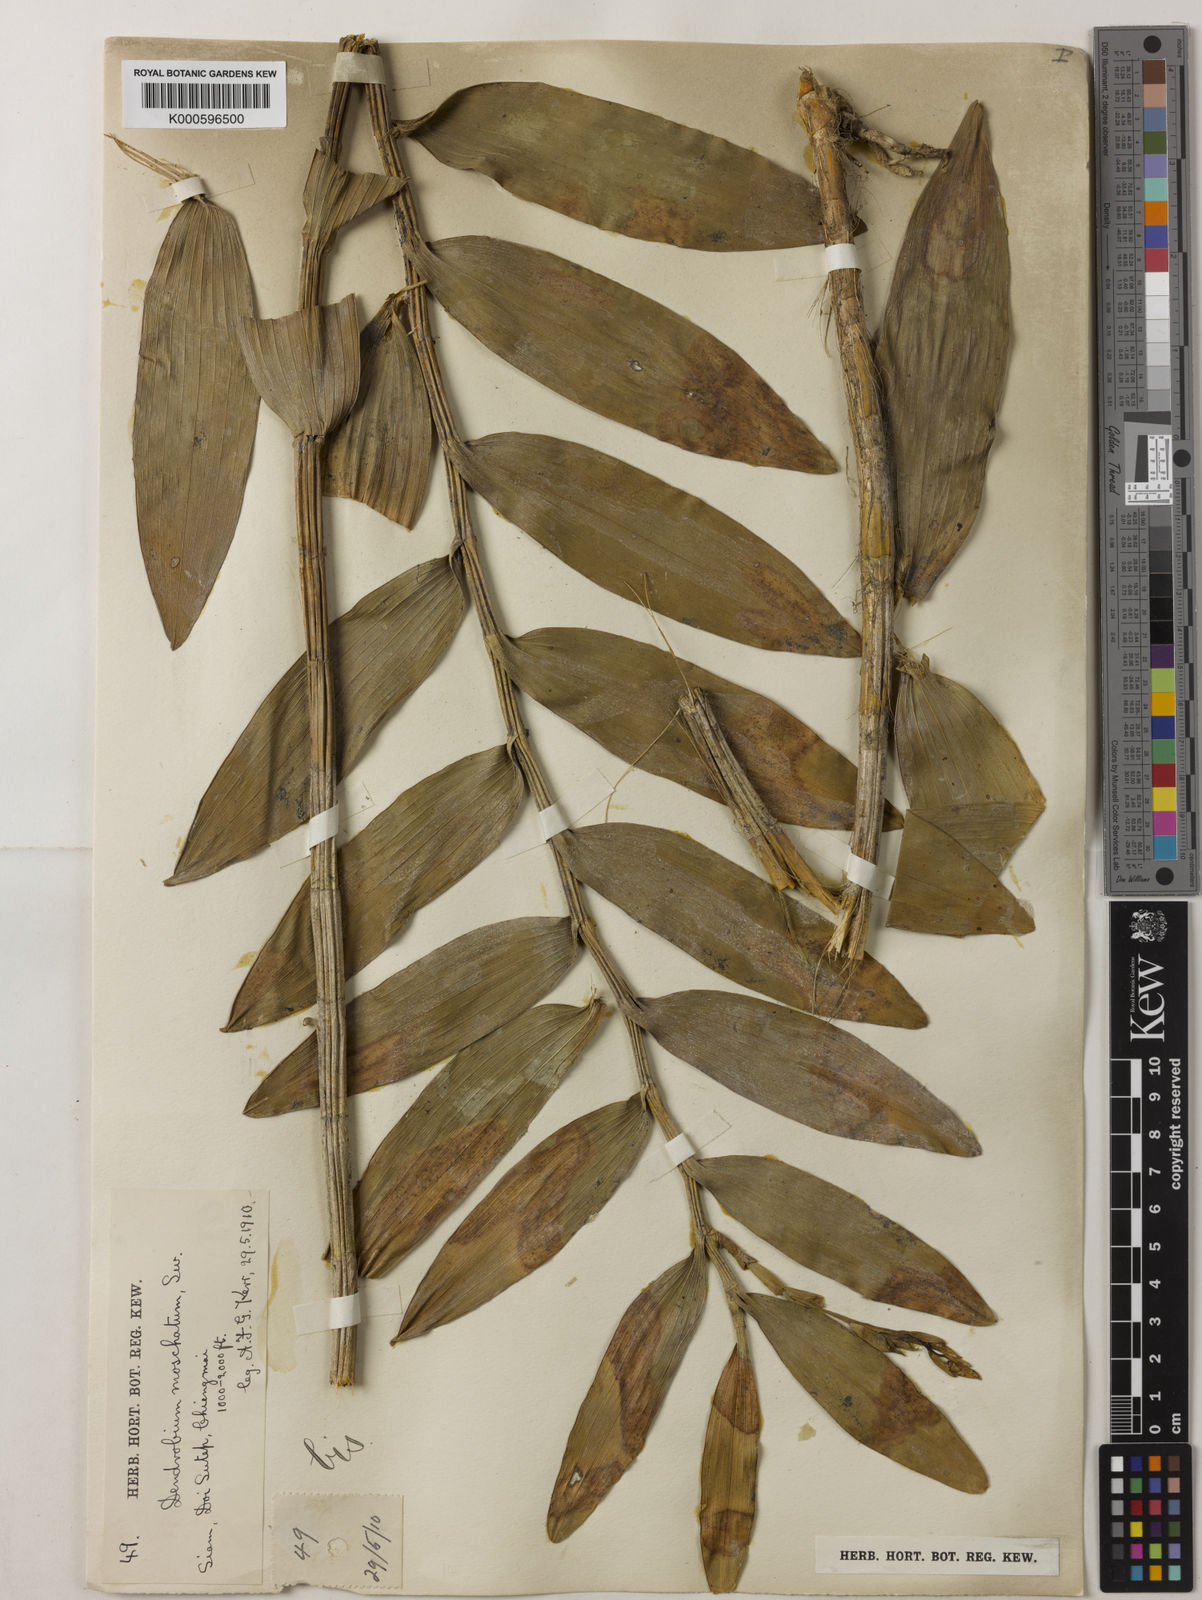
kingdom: Plantae
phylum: Tracheophyta
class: Liliopsida
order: Asparagales
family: Orchidaceae
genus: Dendrobium
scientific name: Dendrobium moschatum
